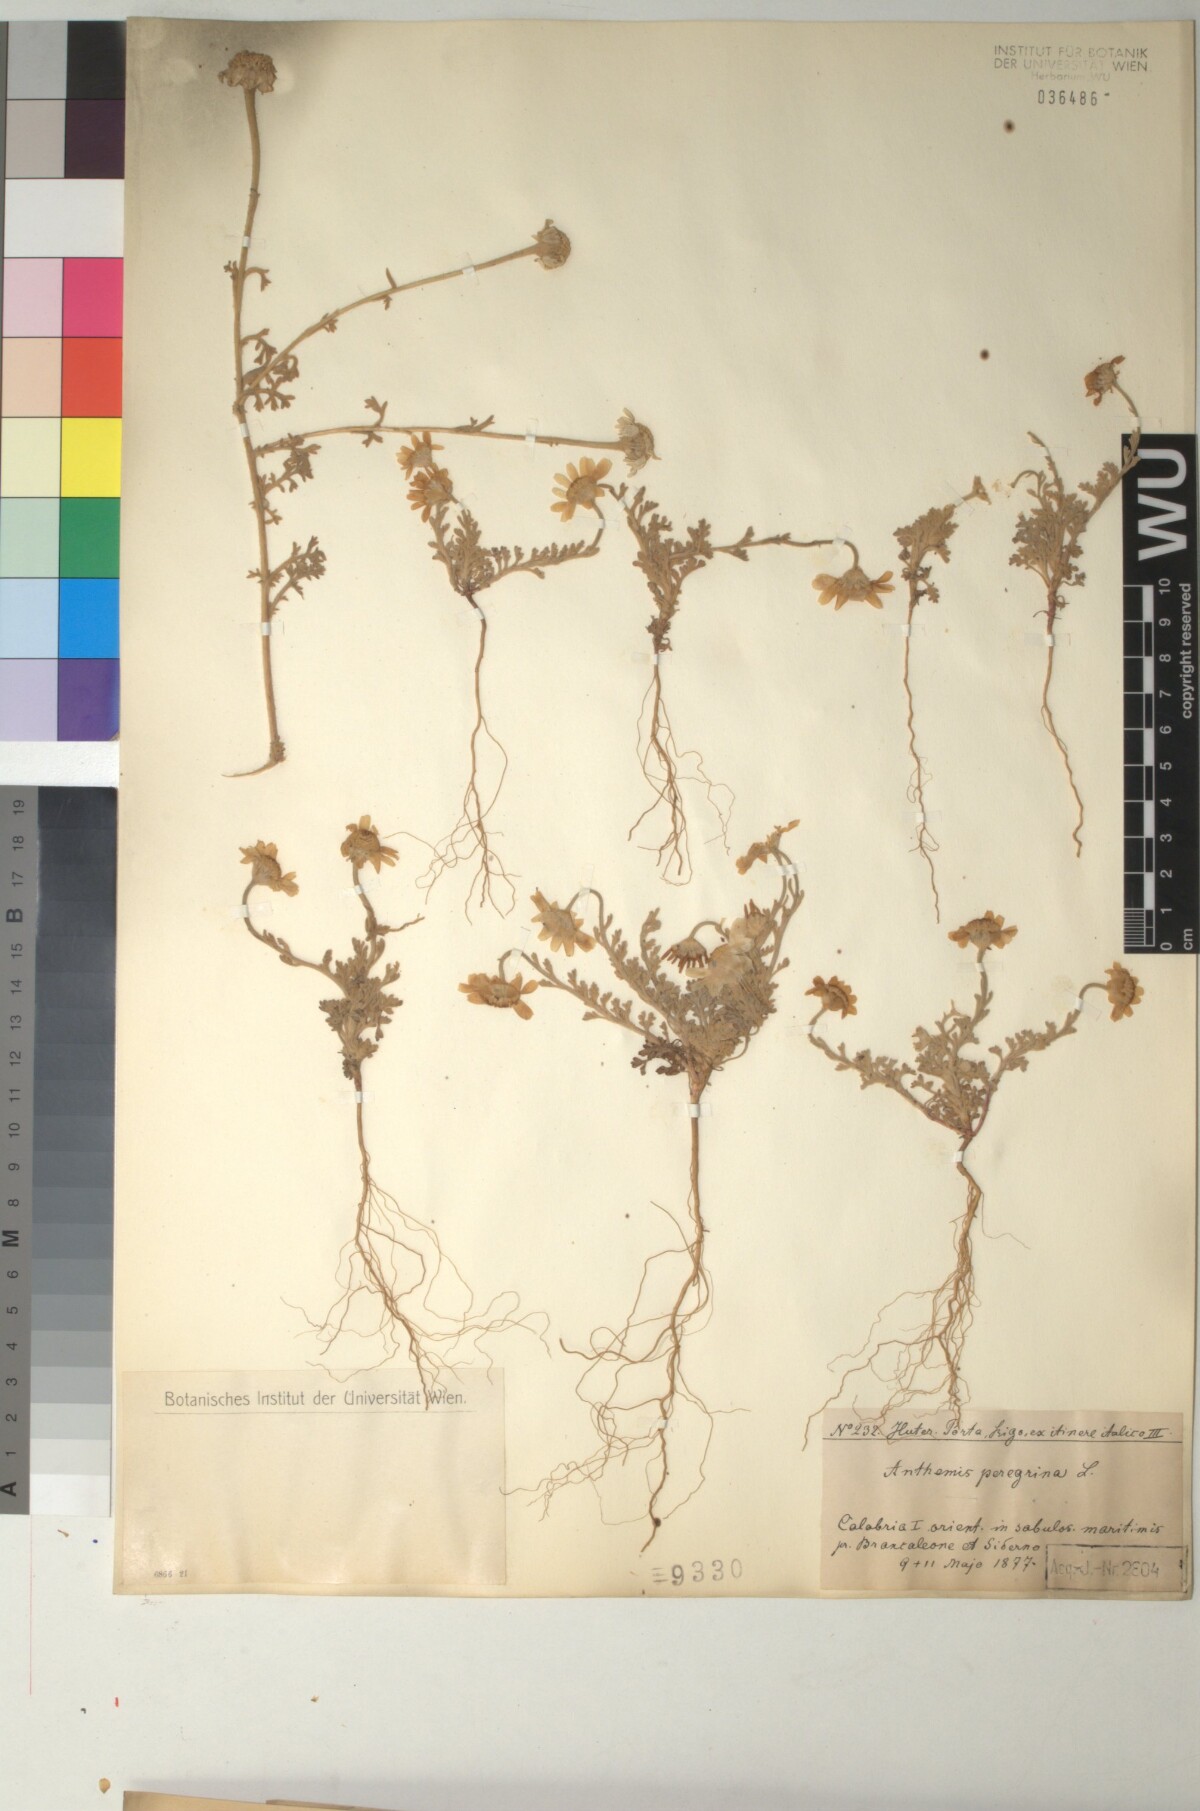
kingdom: Plantae
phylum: Tracheophyta
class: Magnoliopsida
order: Asterales
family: Asteraceae
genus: Anthemis
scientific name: Anthemis tomentosa
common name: Woolly chamomile
